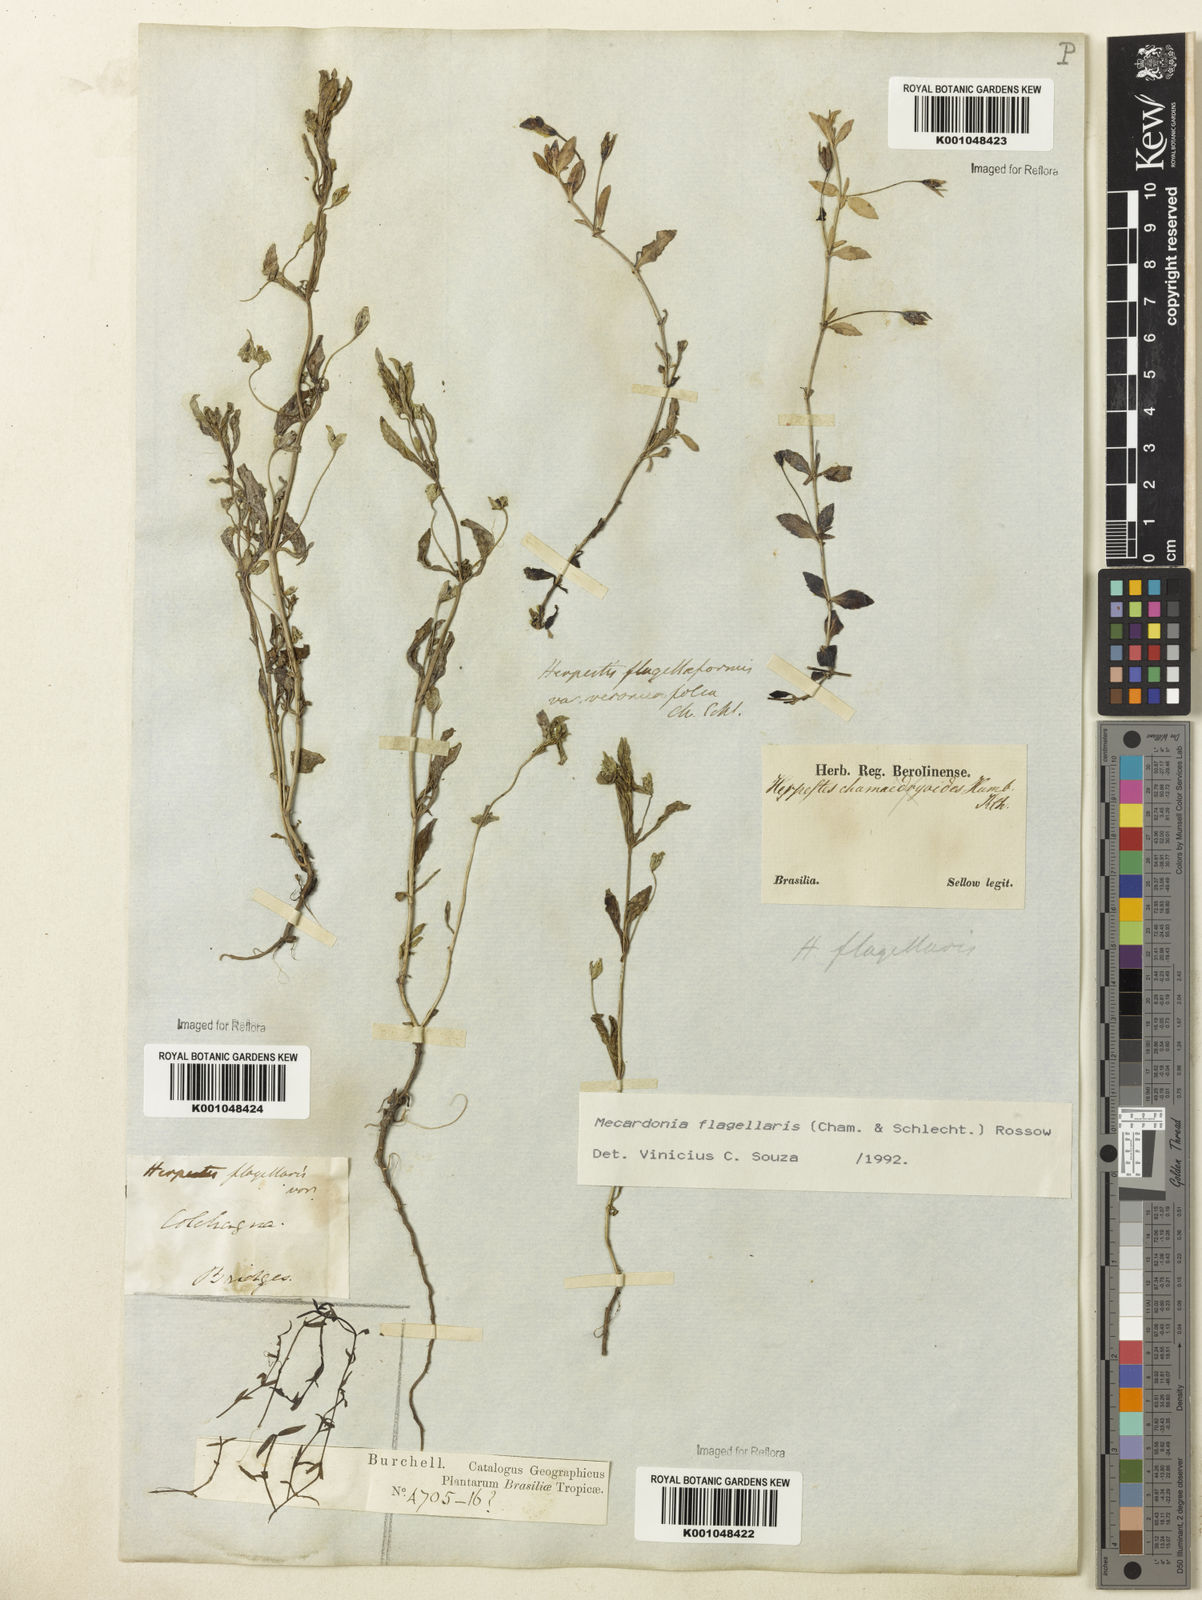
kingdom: Plantae
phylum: Tracheophyta
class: Magnoliopsida
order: Lamiales
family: Plantaginaceae
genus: Mecardonia
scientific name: Mecardonia flagellaris
